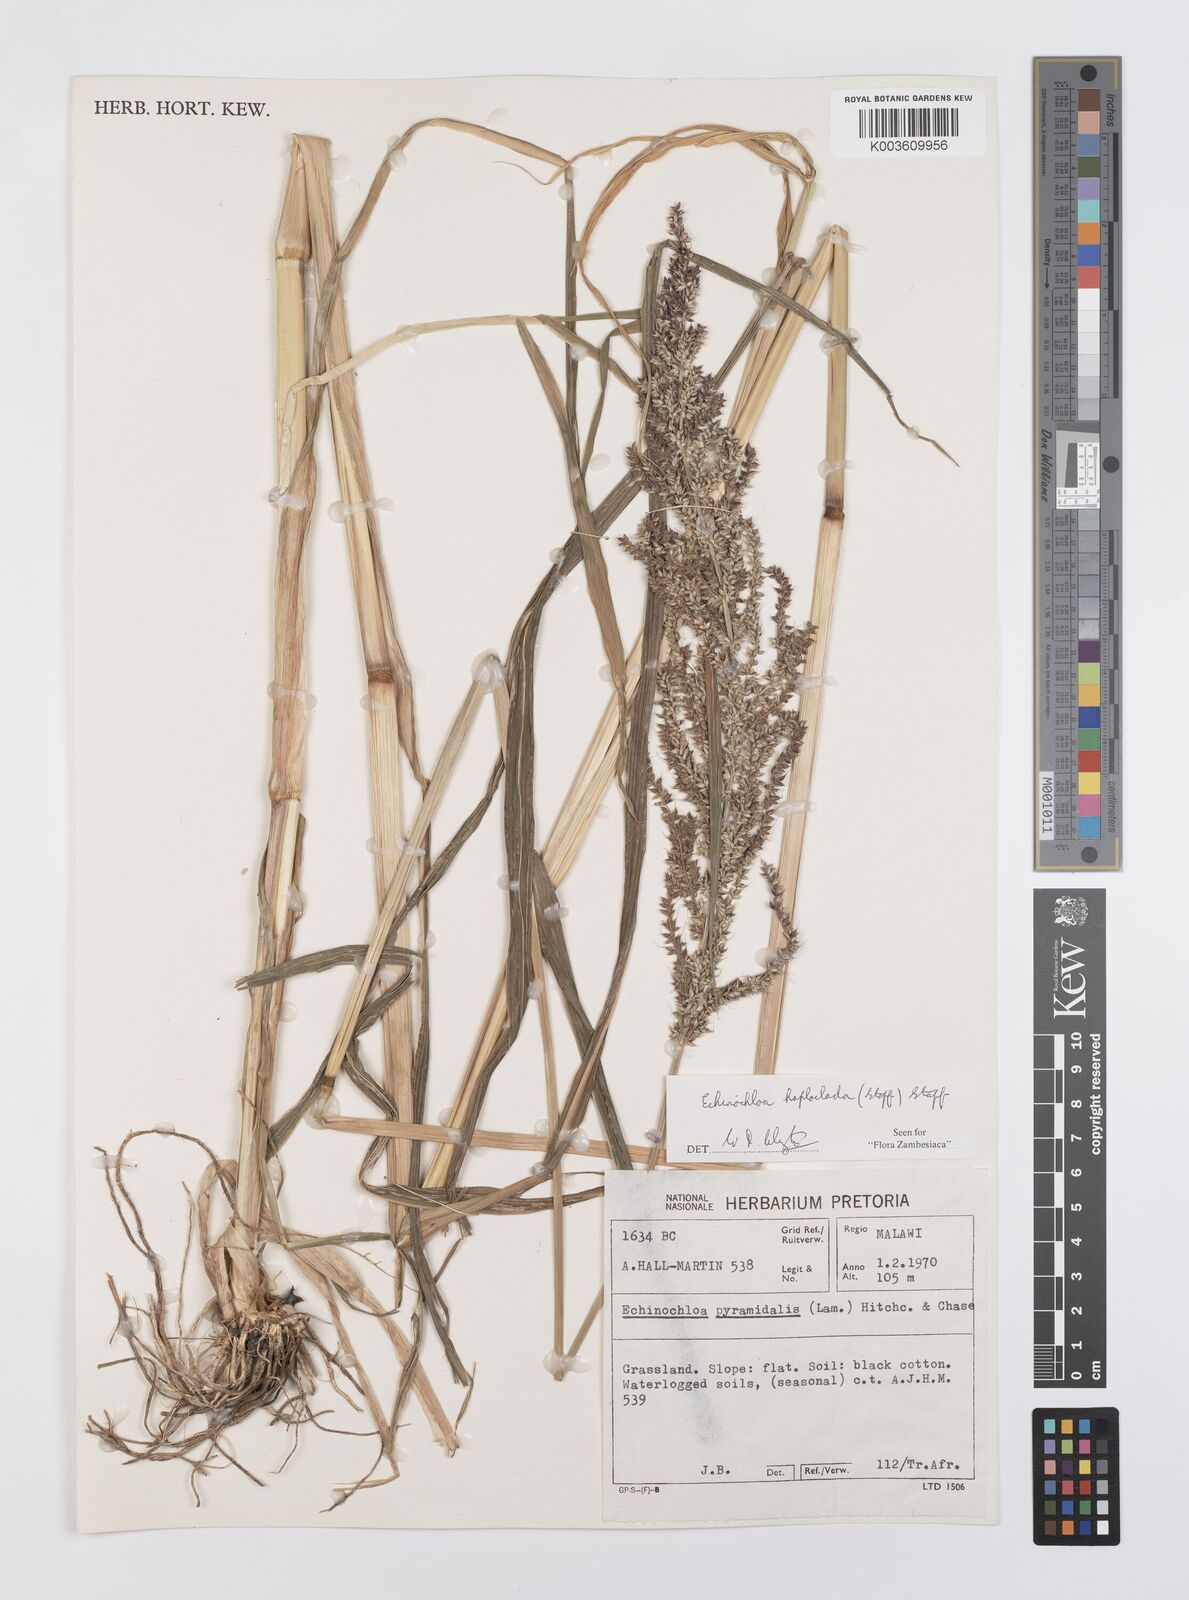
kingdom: Plantae
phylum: Tracheophyta
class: Liliopsida
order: Poales
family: Poaceae
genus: Echinochloa
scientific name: Echinochloa haploclada
